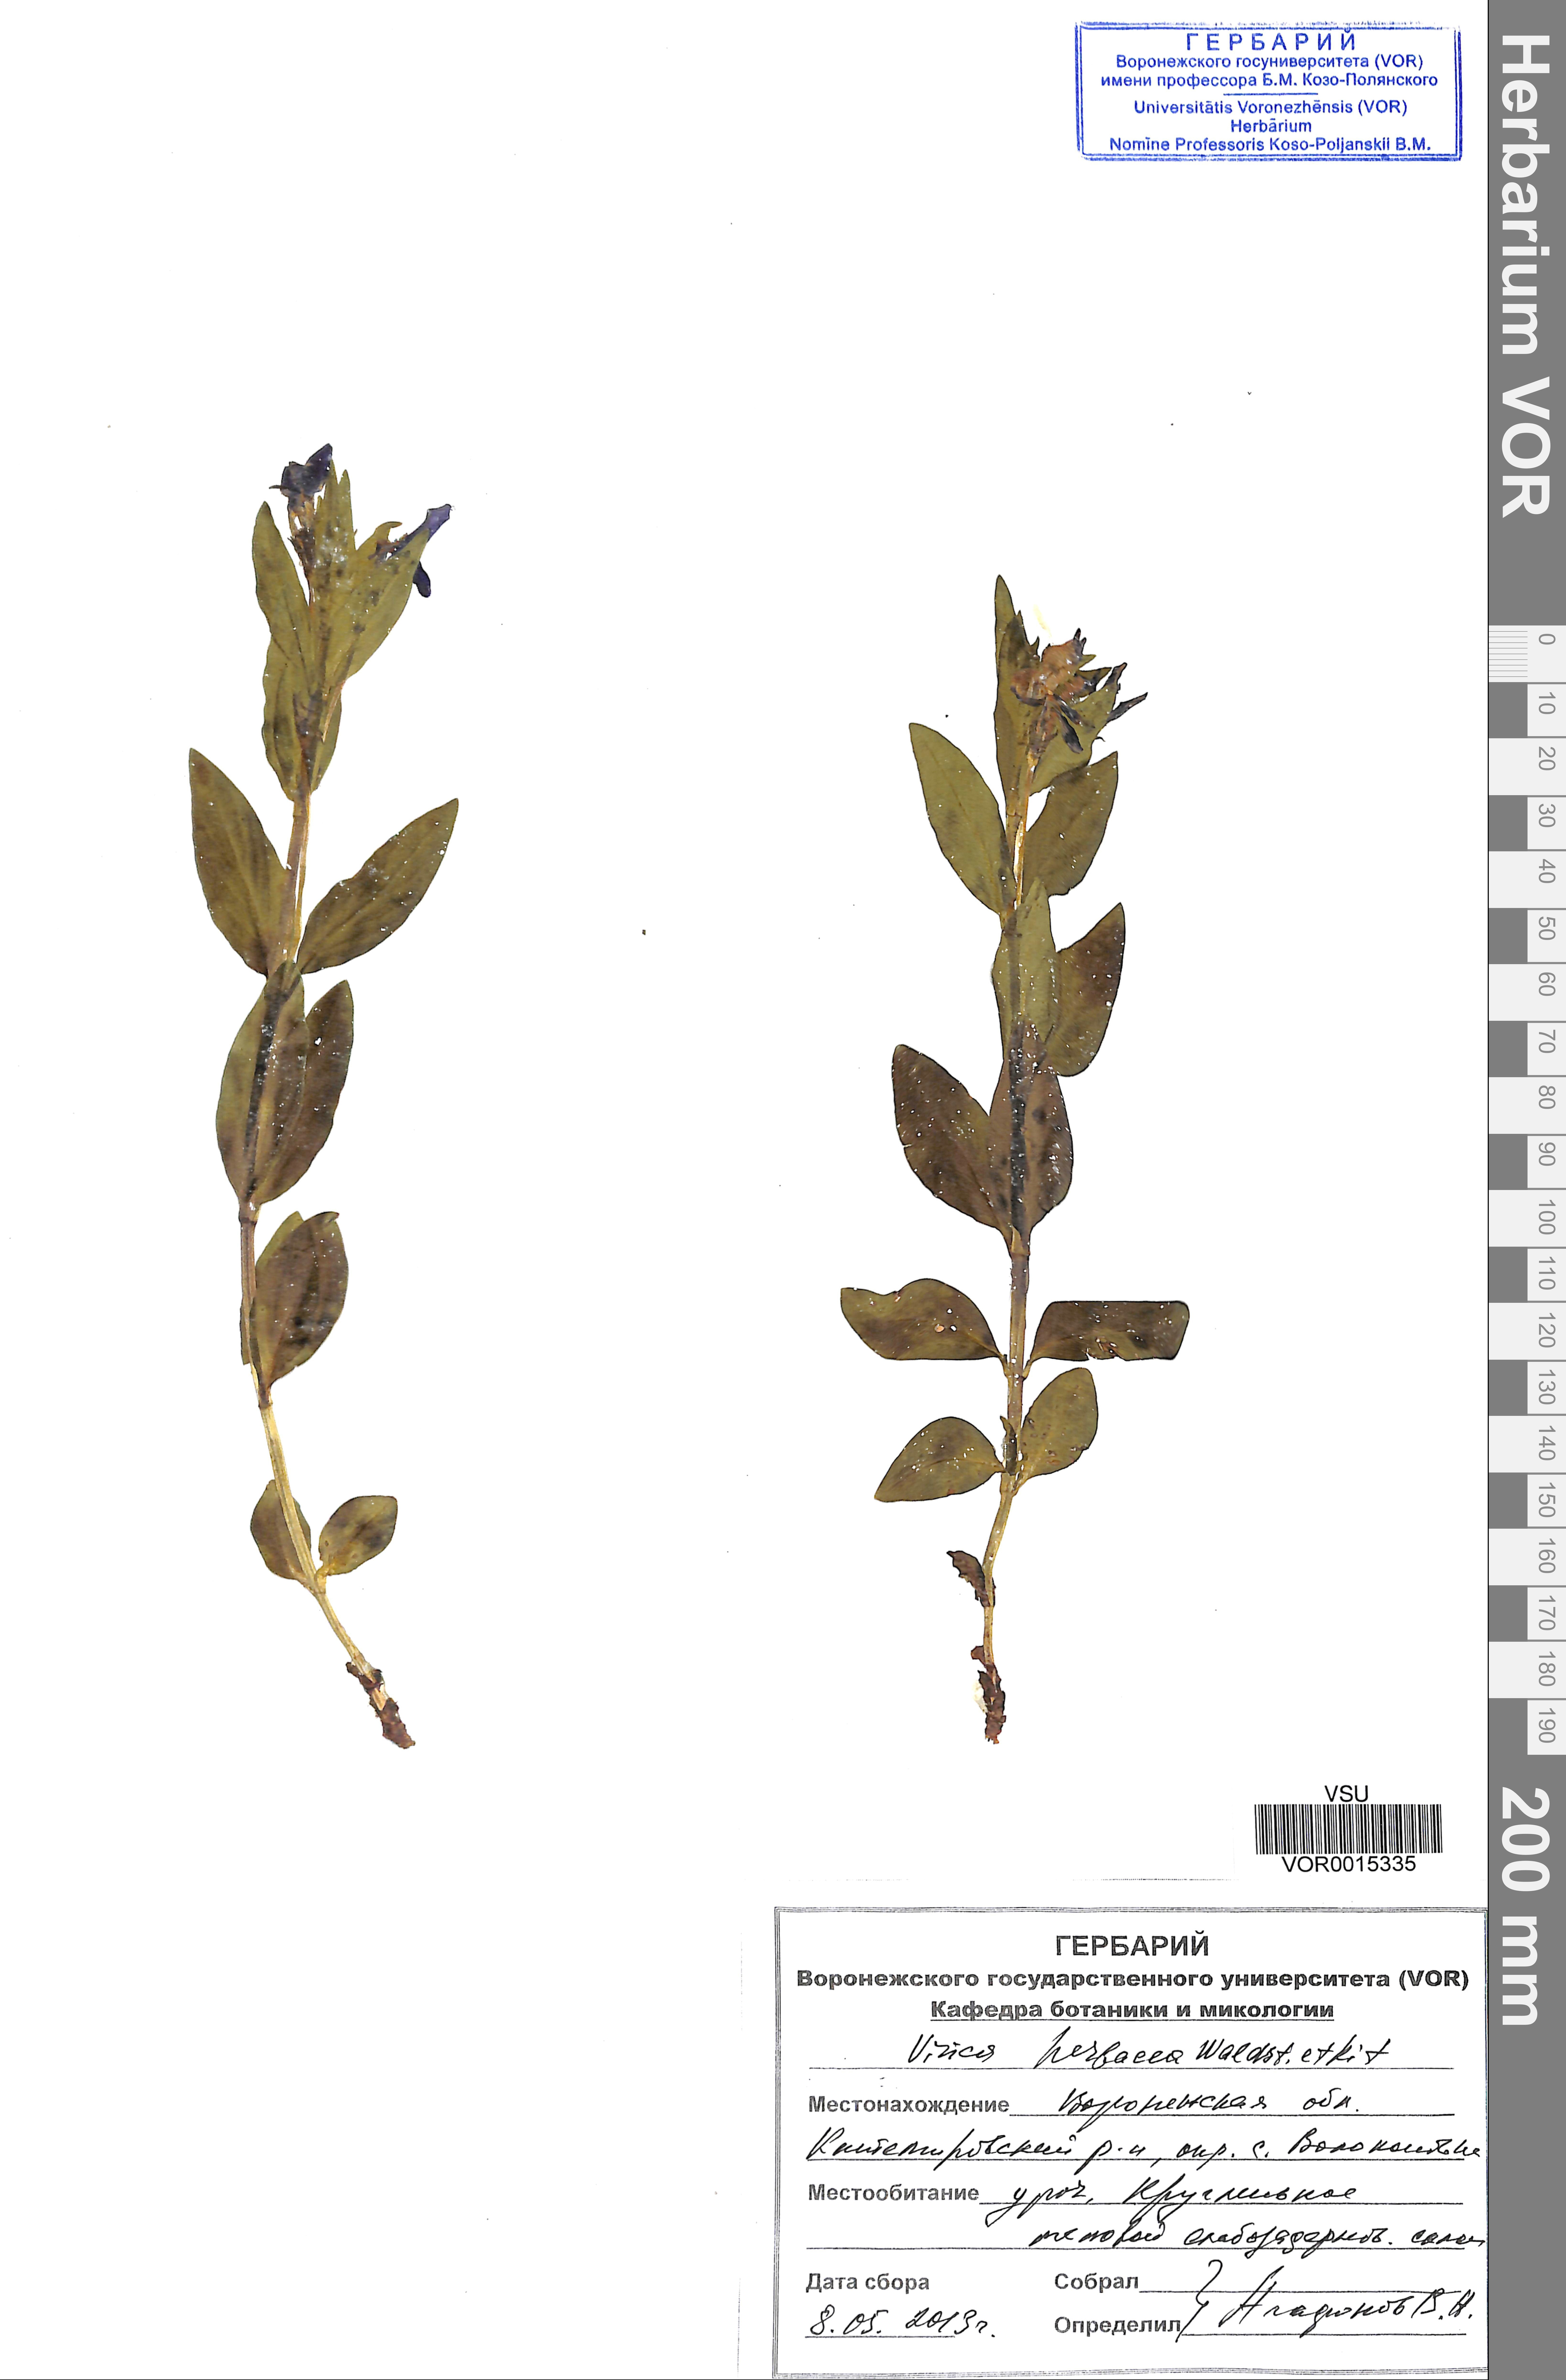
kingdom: Plantae
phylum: Tracheophyta
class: Magnoliopsida
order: Gentianales
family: Apocynaceae
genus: Vinca
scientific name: Vinca herbacea
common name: Herbaceous periwinkle
